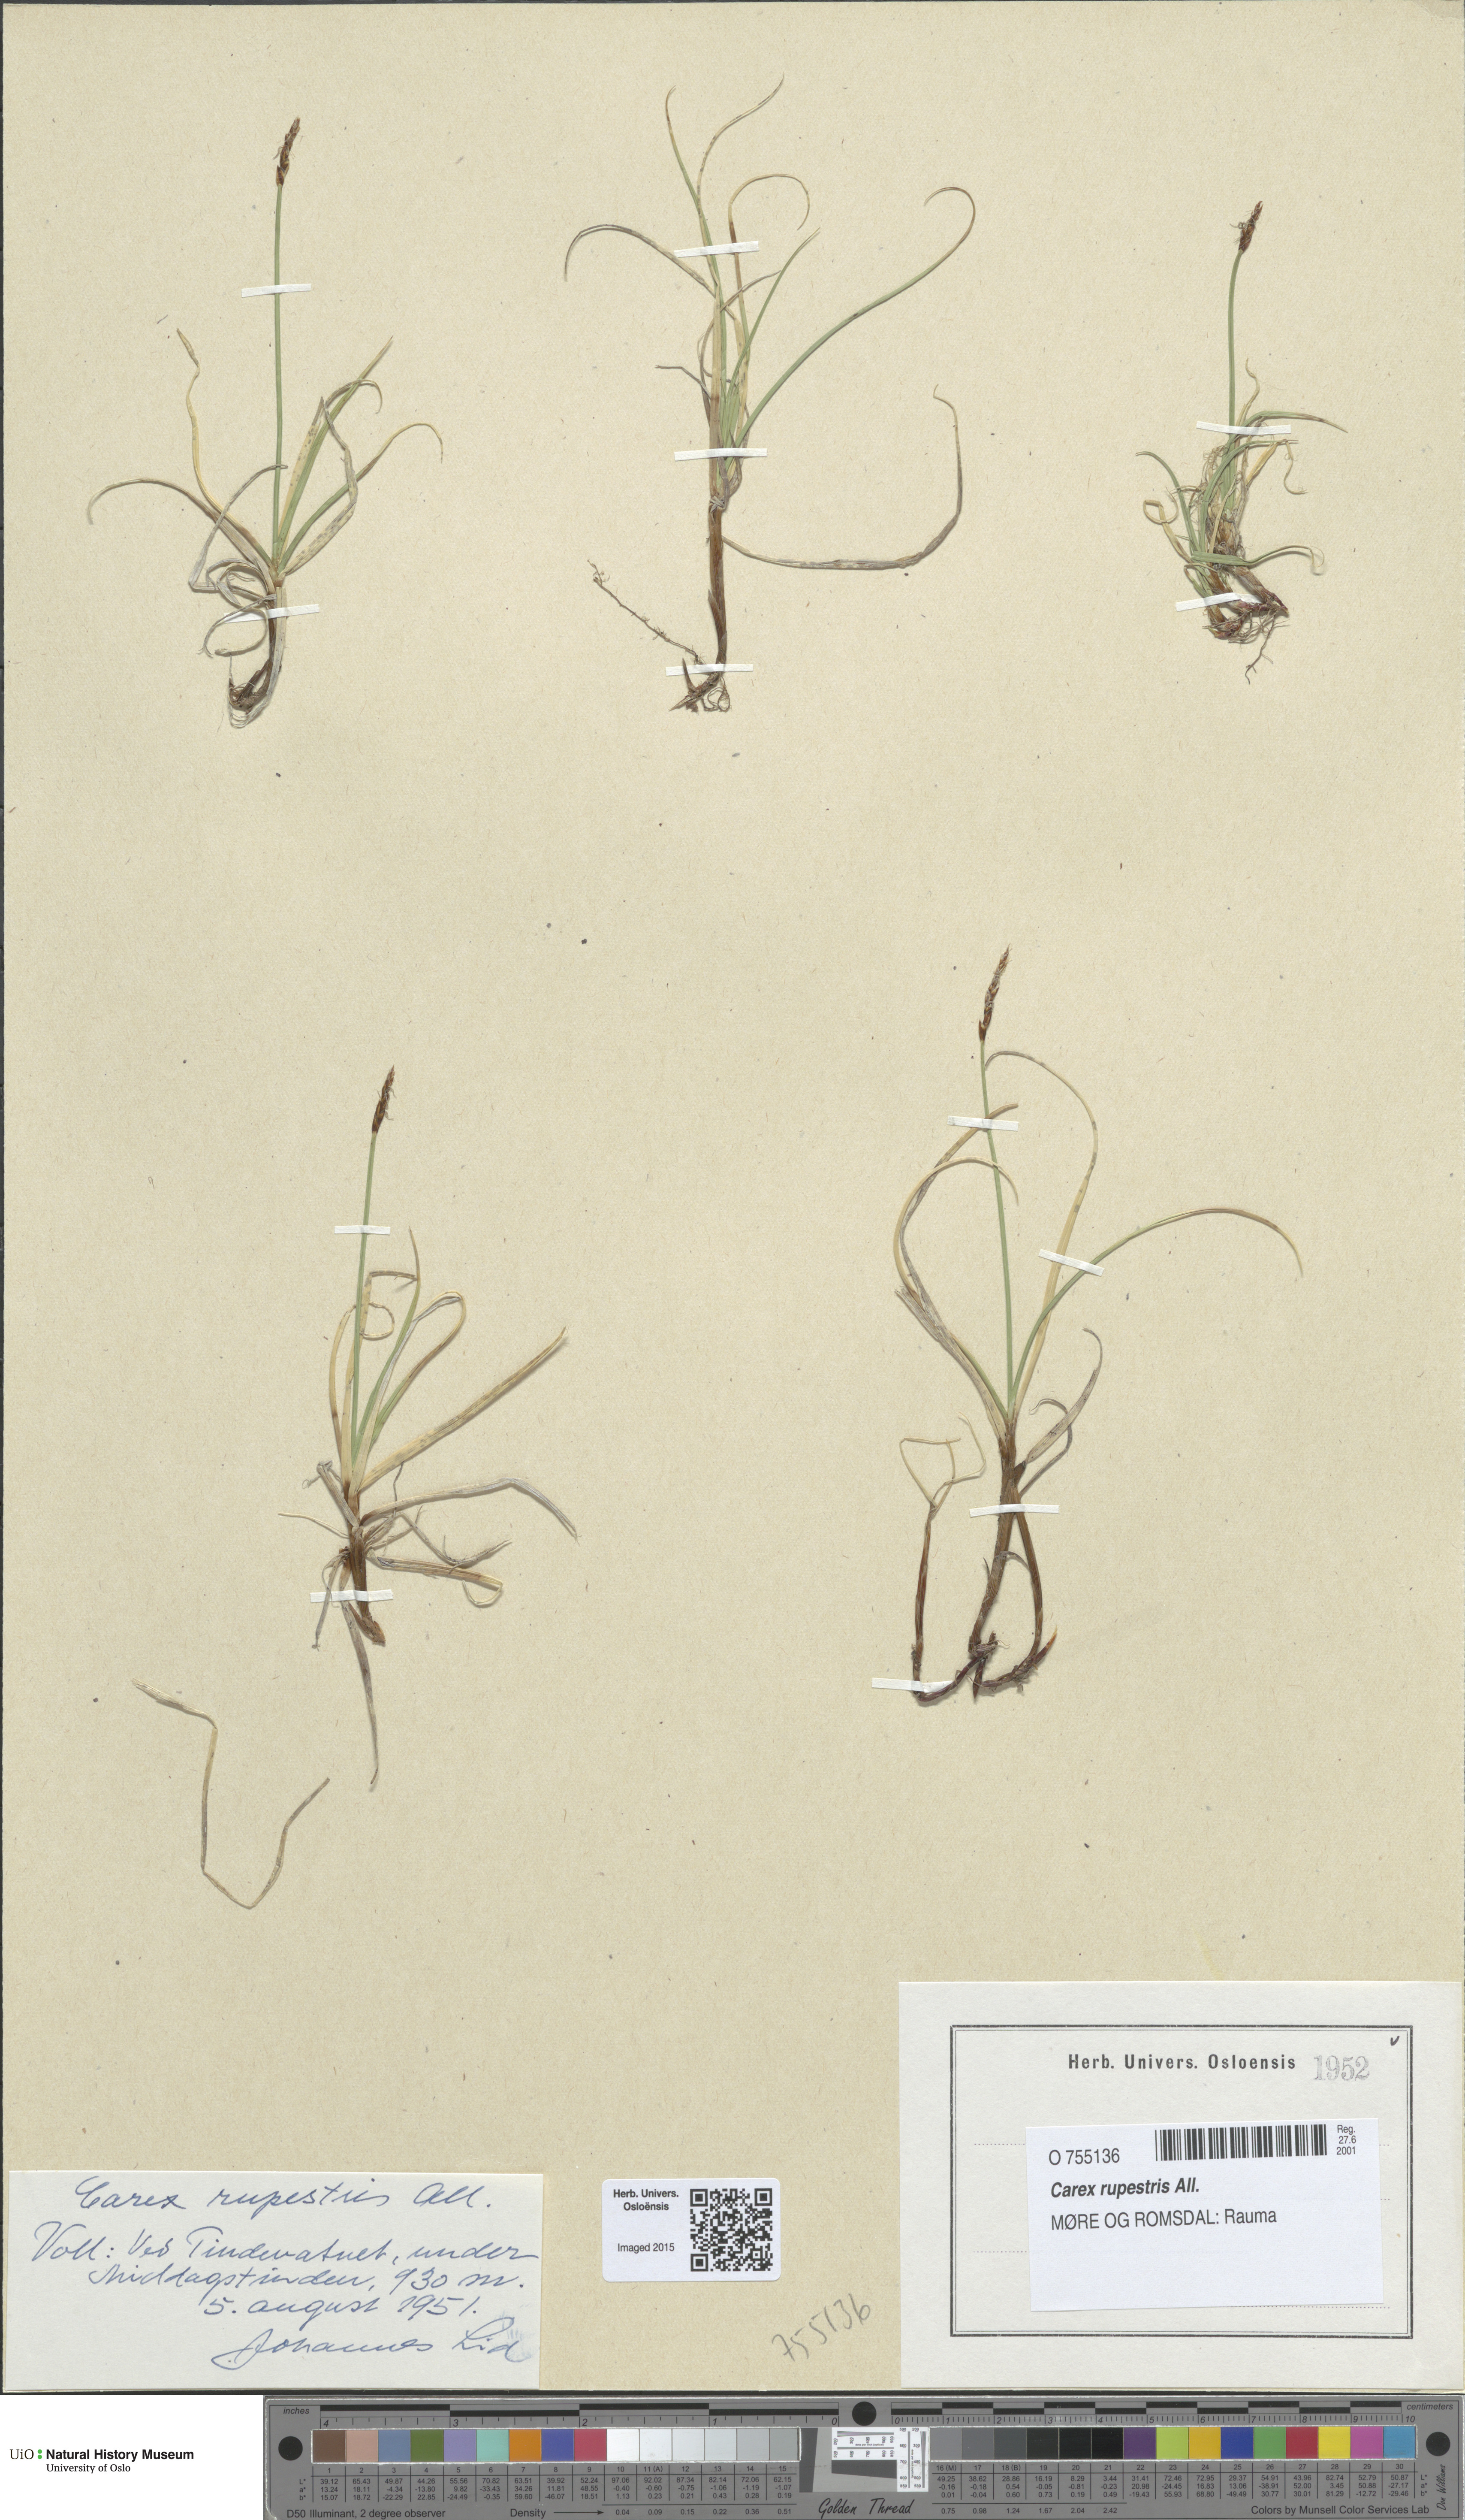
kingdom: Plantae
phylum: Tracheophyta
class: Liliopsida
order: Poales
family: Cyperaceae
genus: Carex
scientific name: Carex rupestris
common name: Rock sedge
